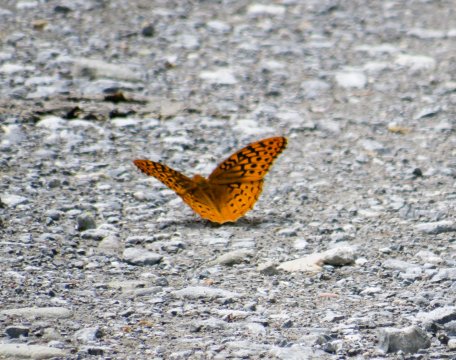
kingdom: Animalia
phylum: Arthropoda
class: Insecta
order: Lepidoptera
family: Nymphalidae
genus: Speyeria
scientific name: Speyeria cybele
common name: Great Spangled Fritillary
